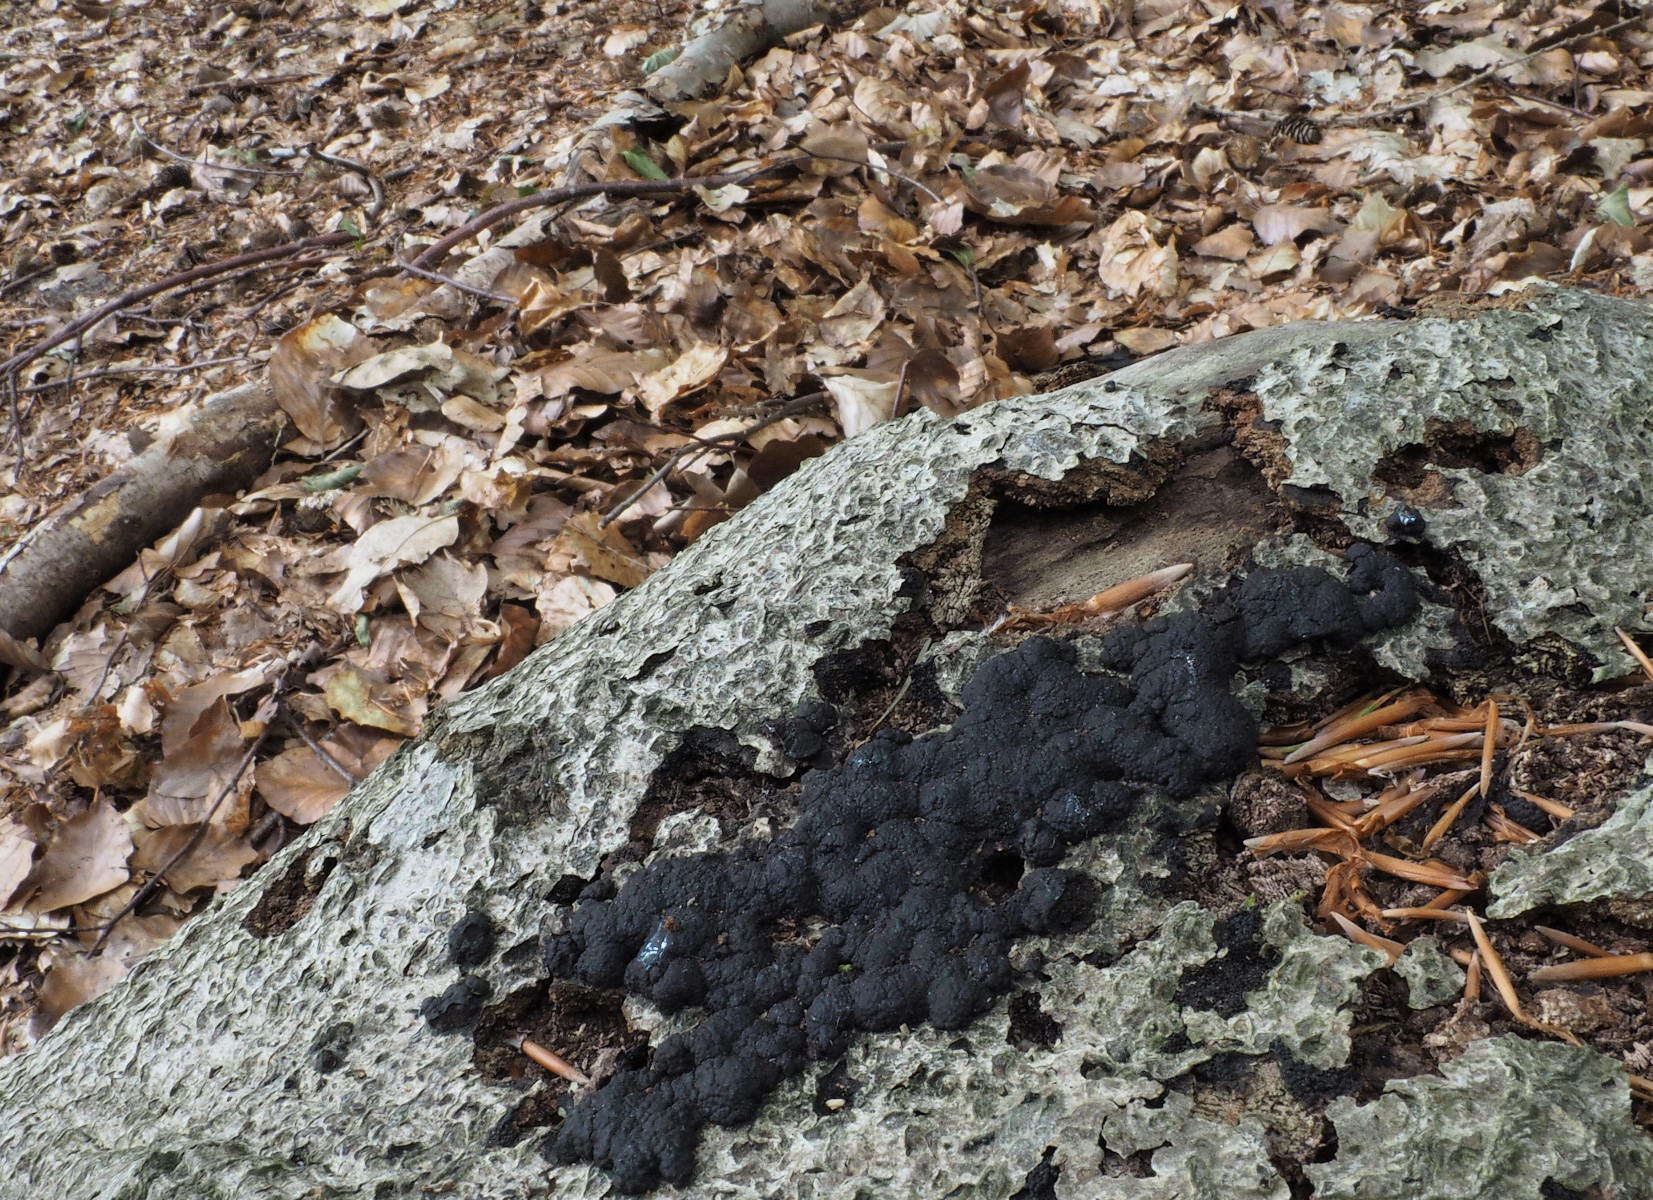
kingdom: Fungi
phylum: Ascomycota
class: Sordariomycetes
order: Xylariales
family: Hypoxylaceae
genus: Jackrogersella
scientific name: Jackrogersella cohaerens
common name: sammenflydende kulbær
